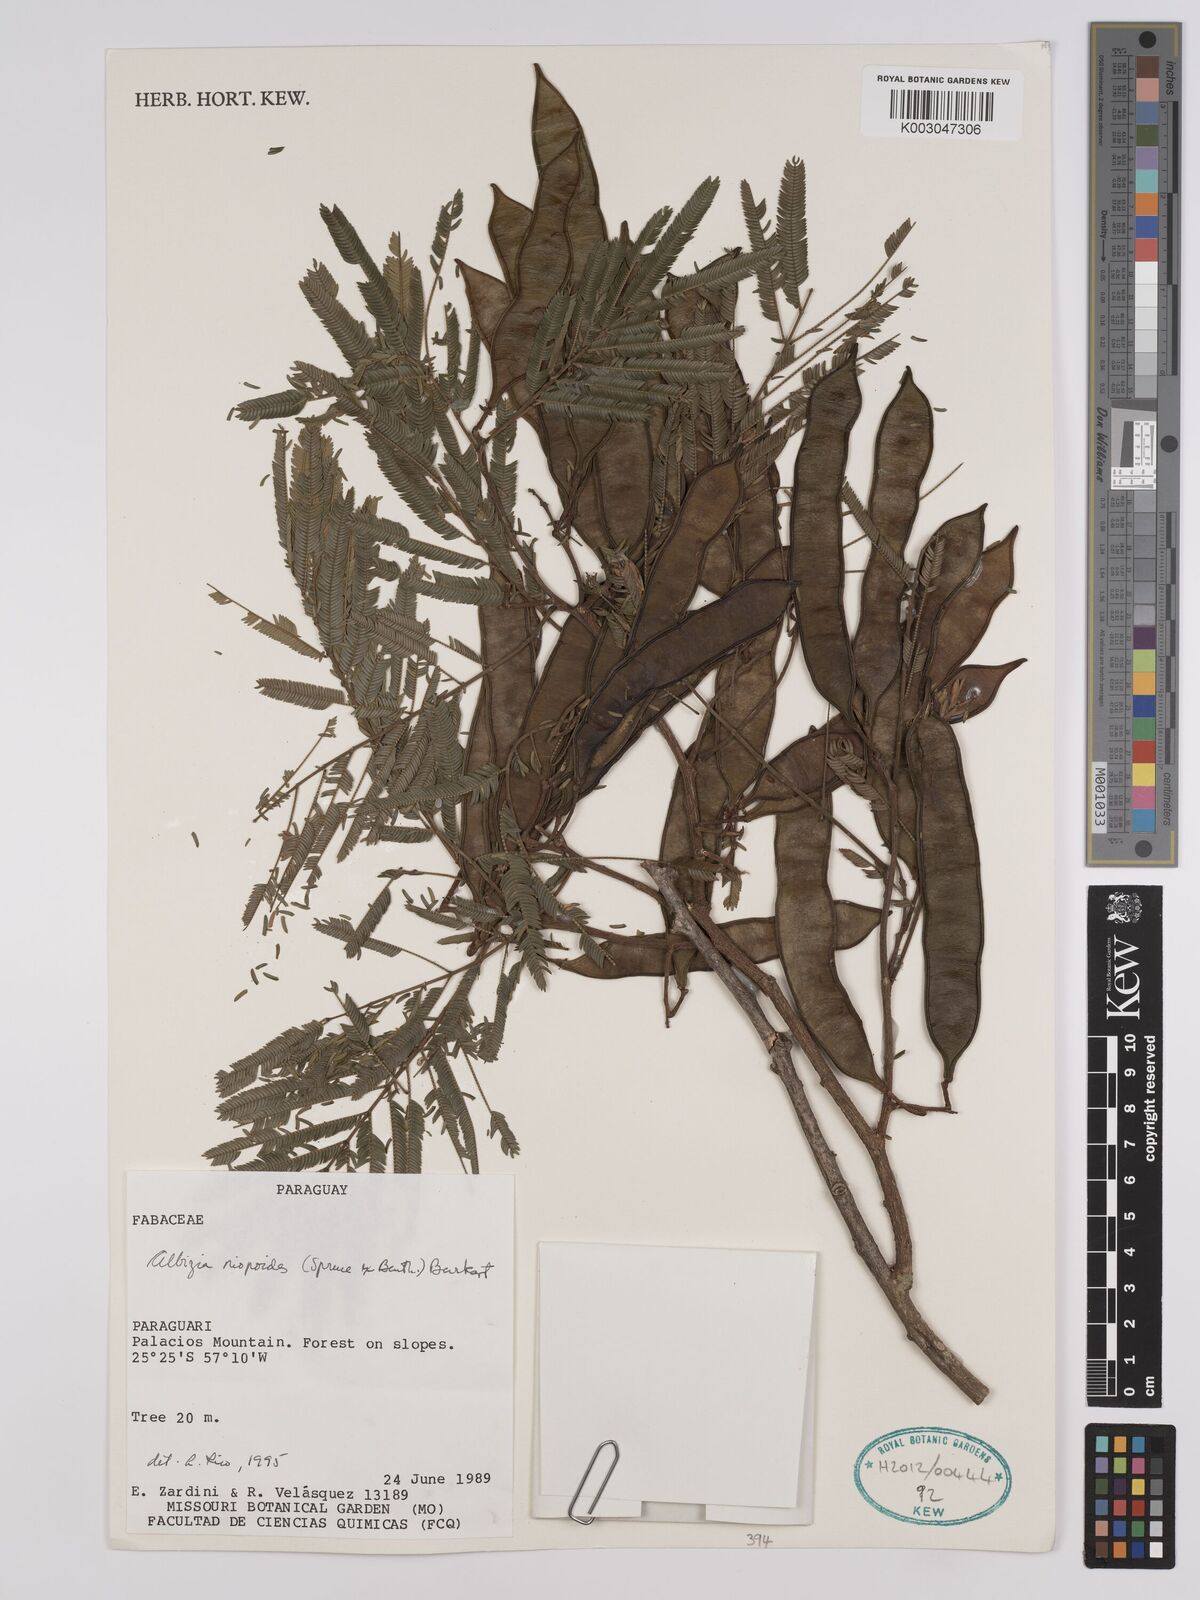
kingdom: Plantae
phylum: Tracheophyta
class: Magnoliopsida
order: Fabales
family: Fabaceae
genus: Albizia
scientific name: Albizia niopoides
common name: Silk tree
